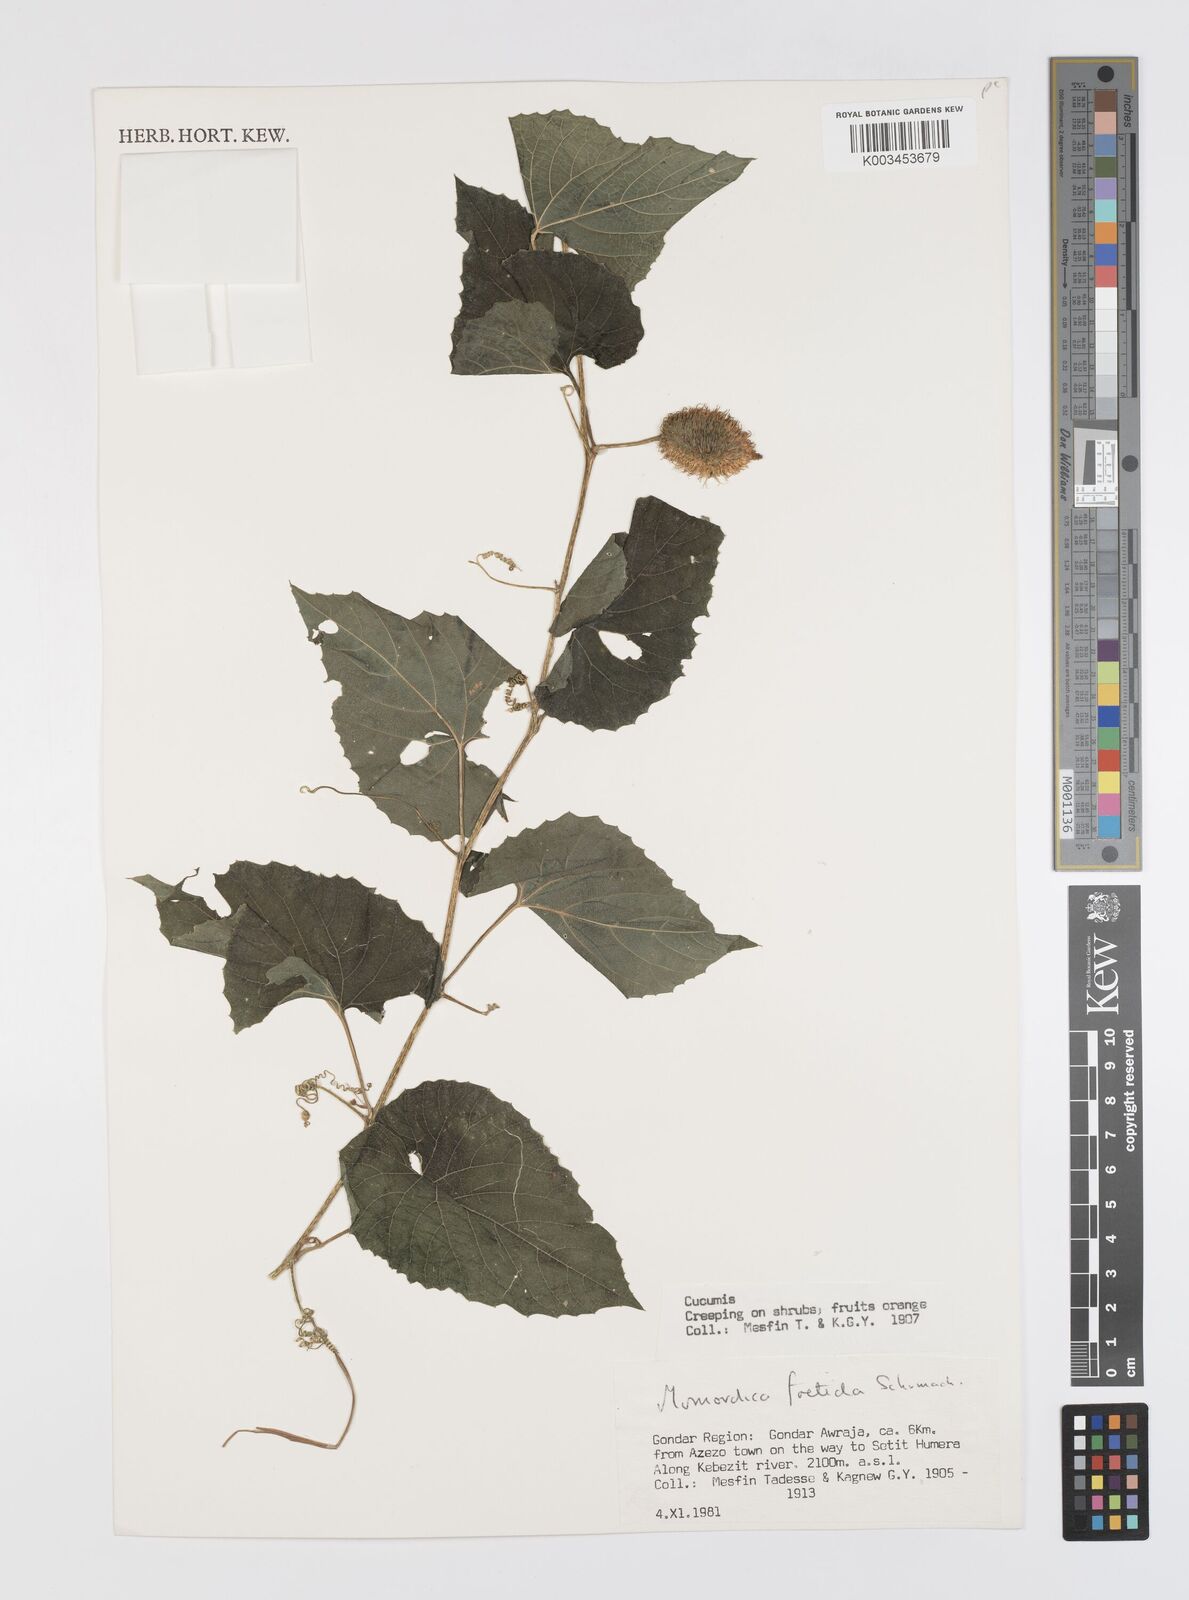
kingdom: Plantae
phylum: Tracheophyta
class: Magnoliopsida
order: Cucurbitales
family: Cucurbitaceae
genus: Momordica
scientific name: Momordica foetida
